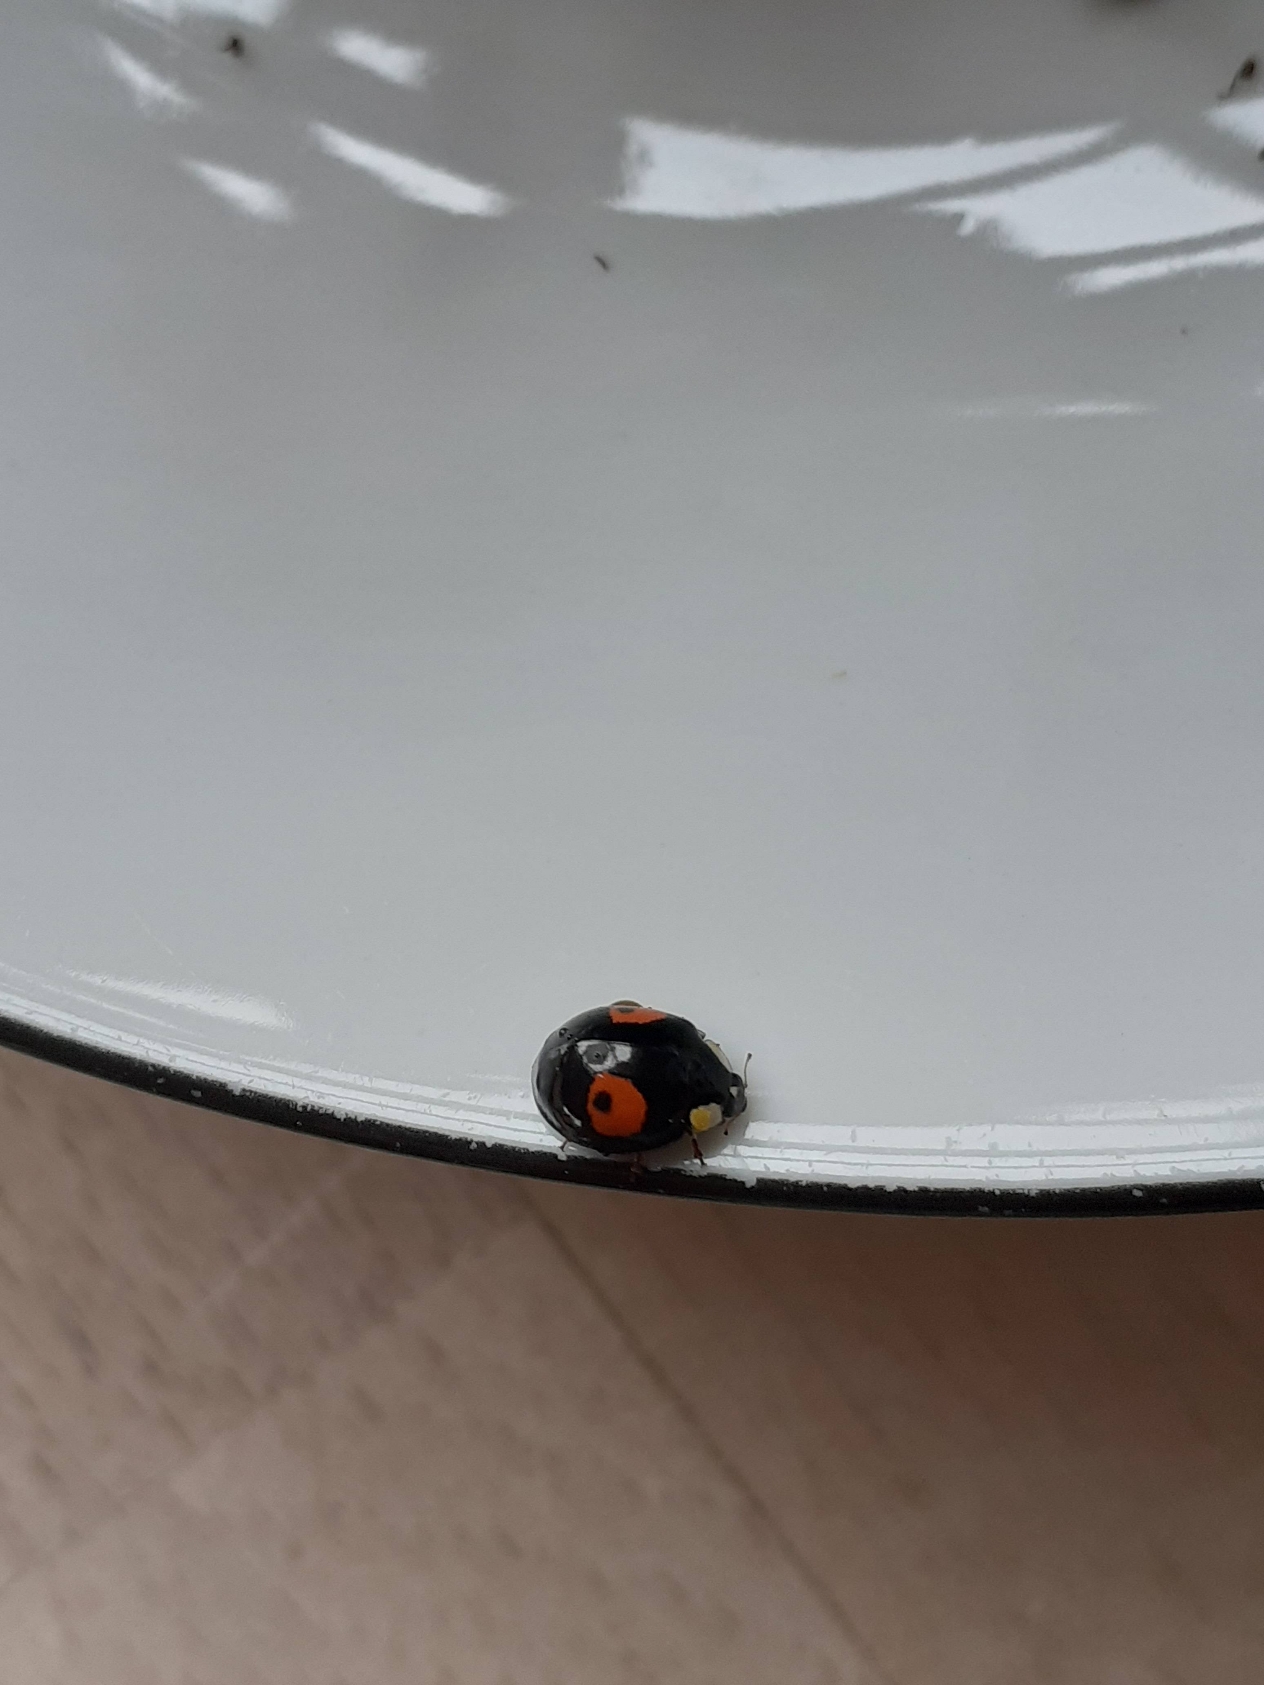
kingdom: Animalia
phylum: Arthropoda
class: Insecta
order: Coleoptera
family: Coccinellidae
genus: Harmonia
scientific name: Harmonia axyridis
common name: Harlekinmariehøne
